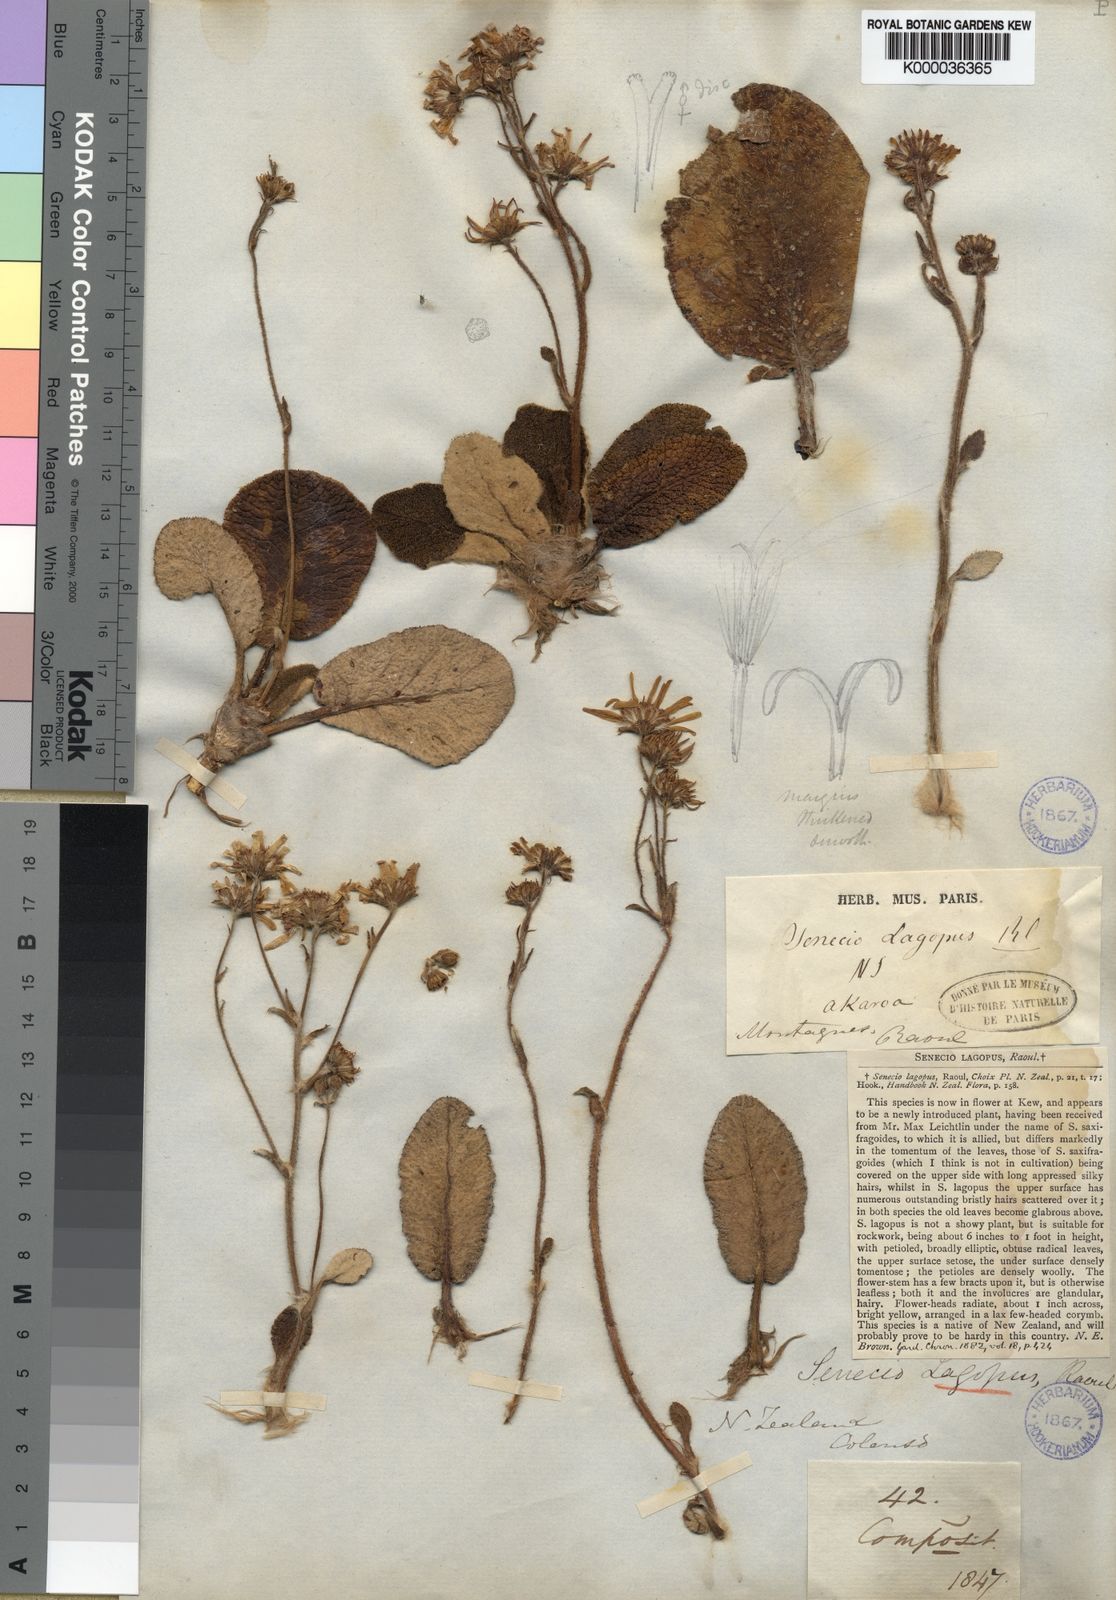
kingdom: Plantae
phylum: Tracheophyta
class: Magnoliopsida
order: Asterales
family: Asteraceae
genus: Brachyglottis
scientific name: Brachyglottis haastii
